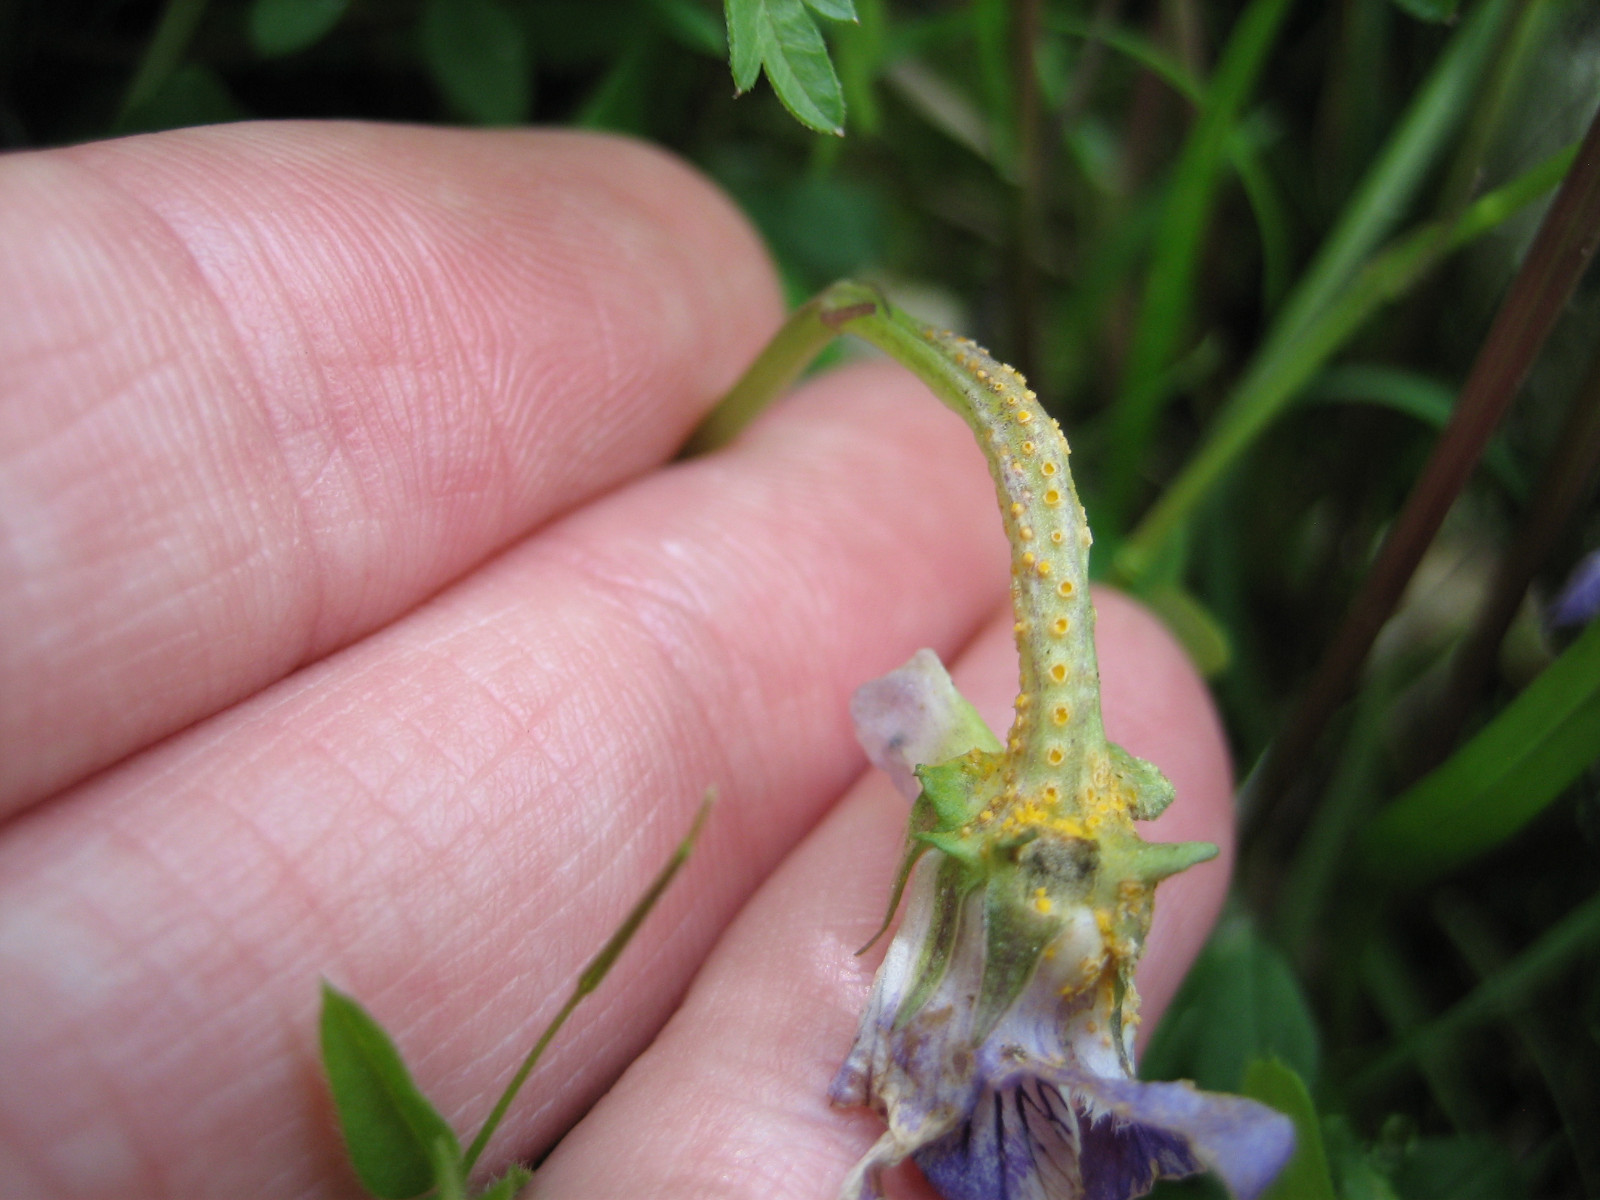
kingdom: Fungi
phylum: Basidiomycota
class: Pucciniomycetes
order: Pucciniales
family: Pucciniaceae
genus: Puccinia
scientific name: Puccinia violae
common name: viol-tvecellerust
